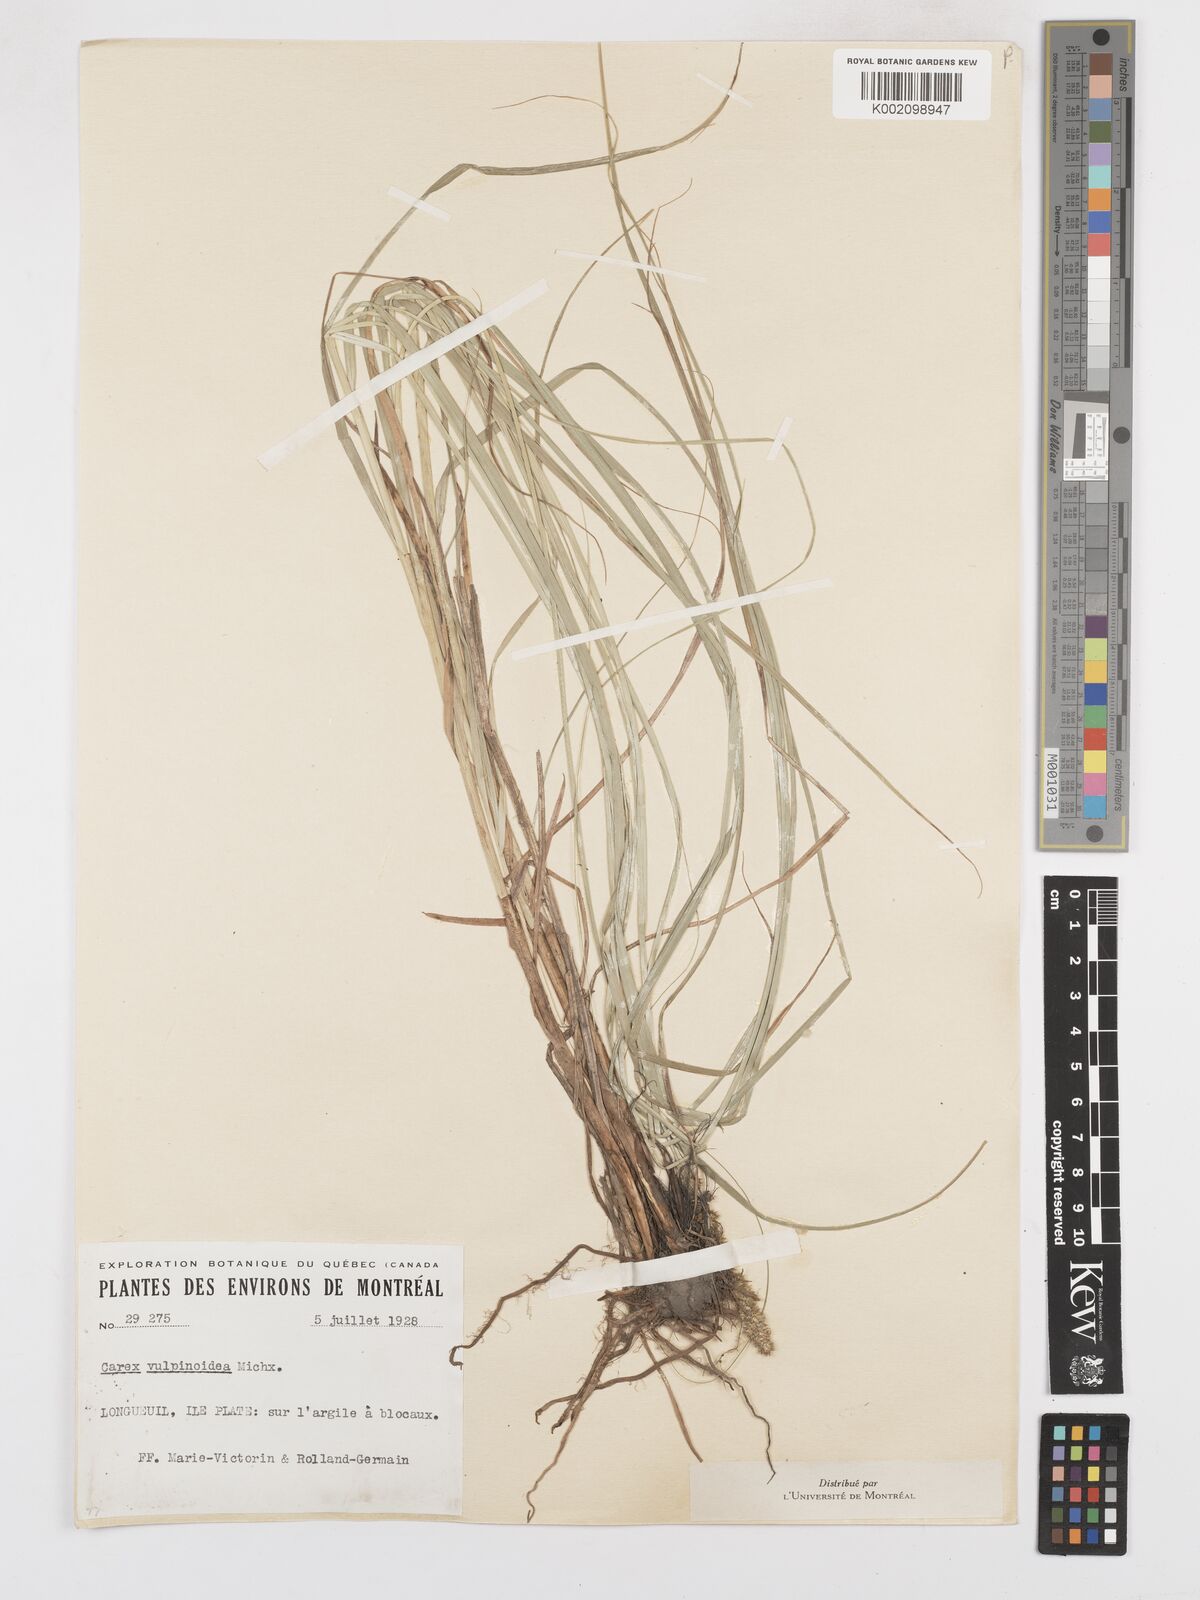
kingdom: Plantae
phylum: Tracheophyta
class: Liliopsida
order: Poales
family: Cyperaceae
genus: Carex
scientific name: Carex vulpinoidea
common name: American fox-sedge
